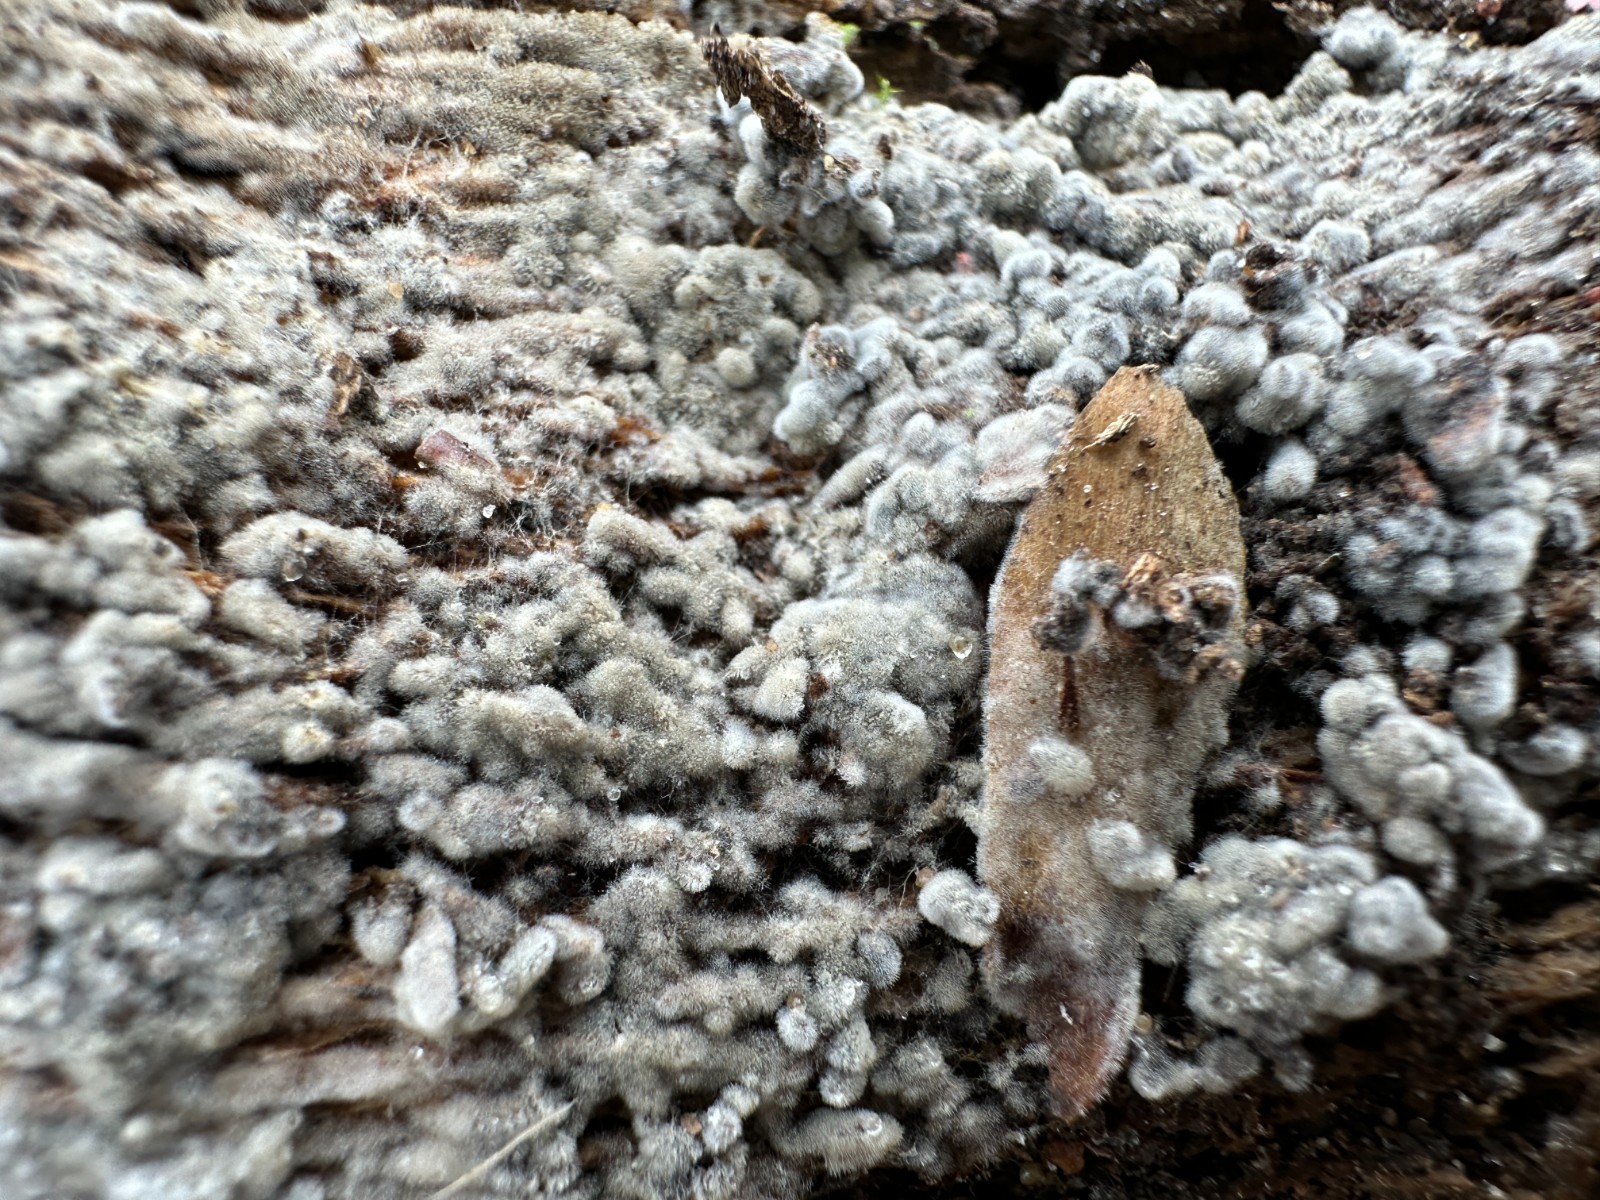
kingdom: Fungi
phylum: Basidiomycota
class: Agaricomycetes
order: Corticiales
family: Corticiaceae
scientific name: Corticiaceae
